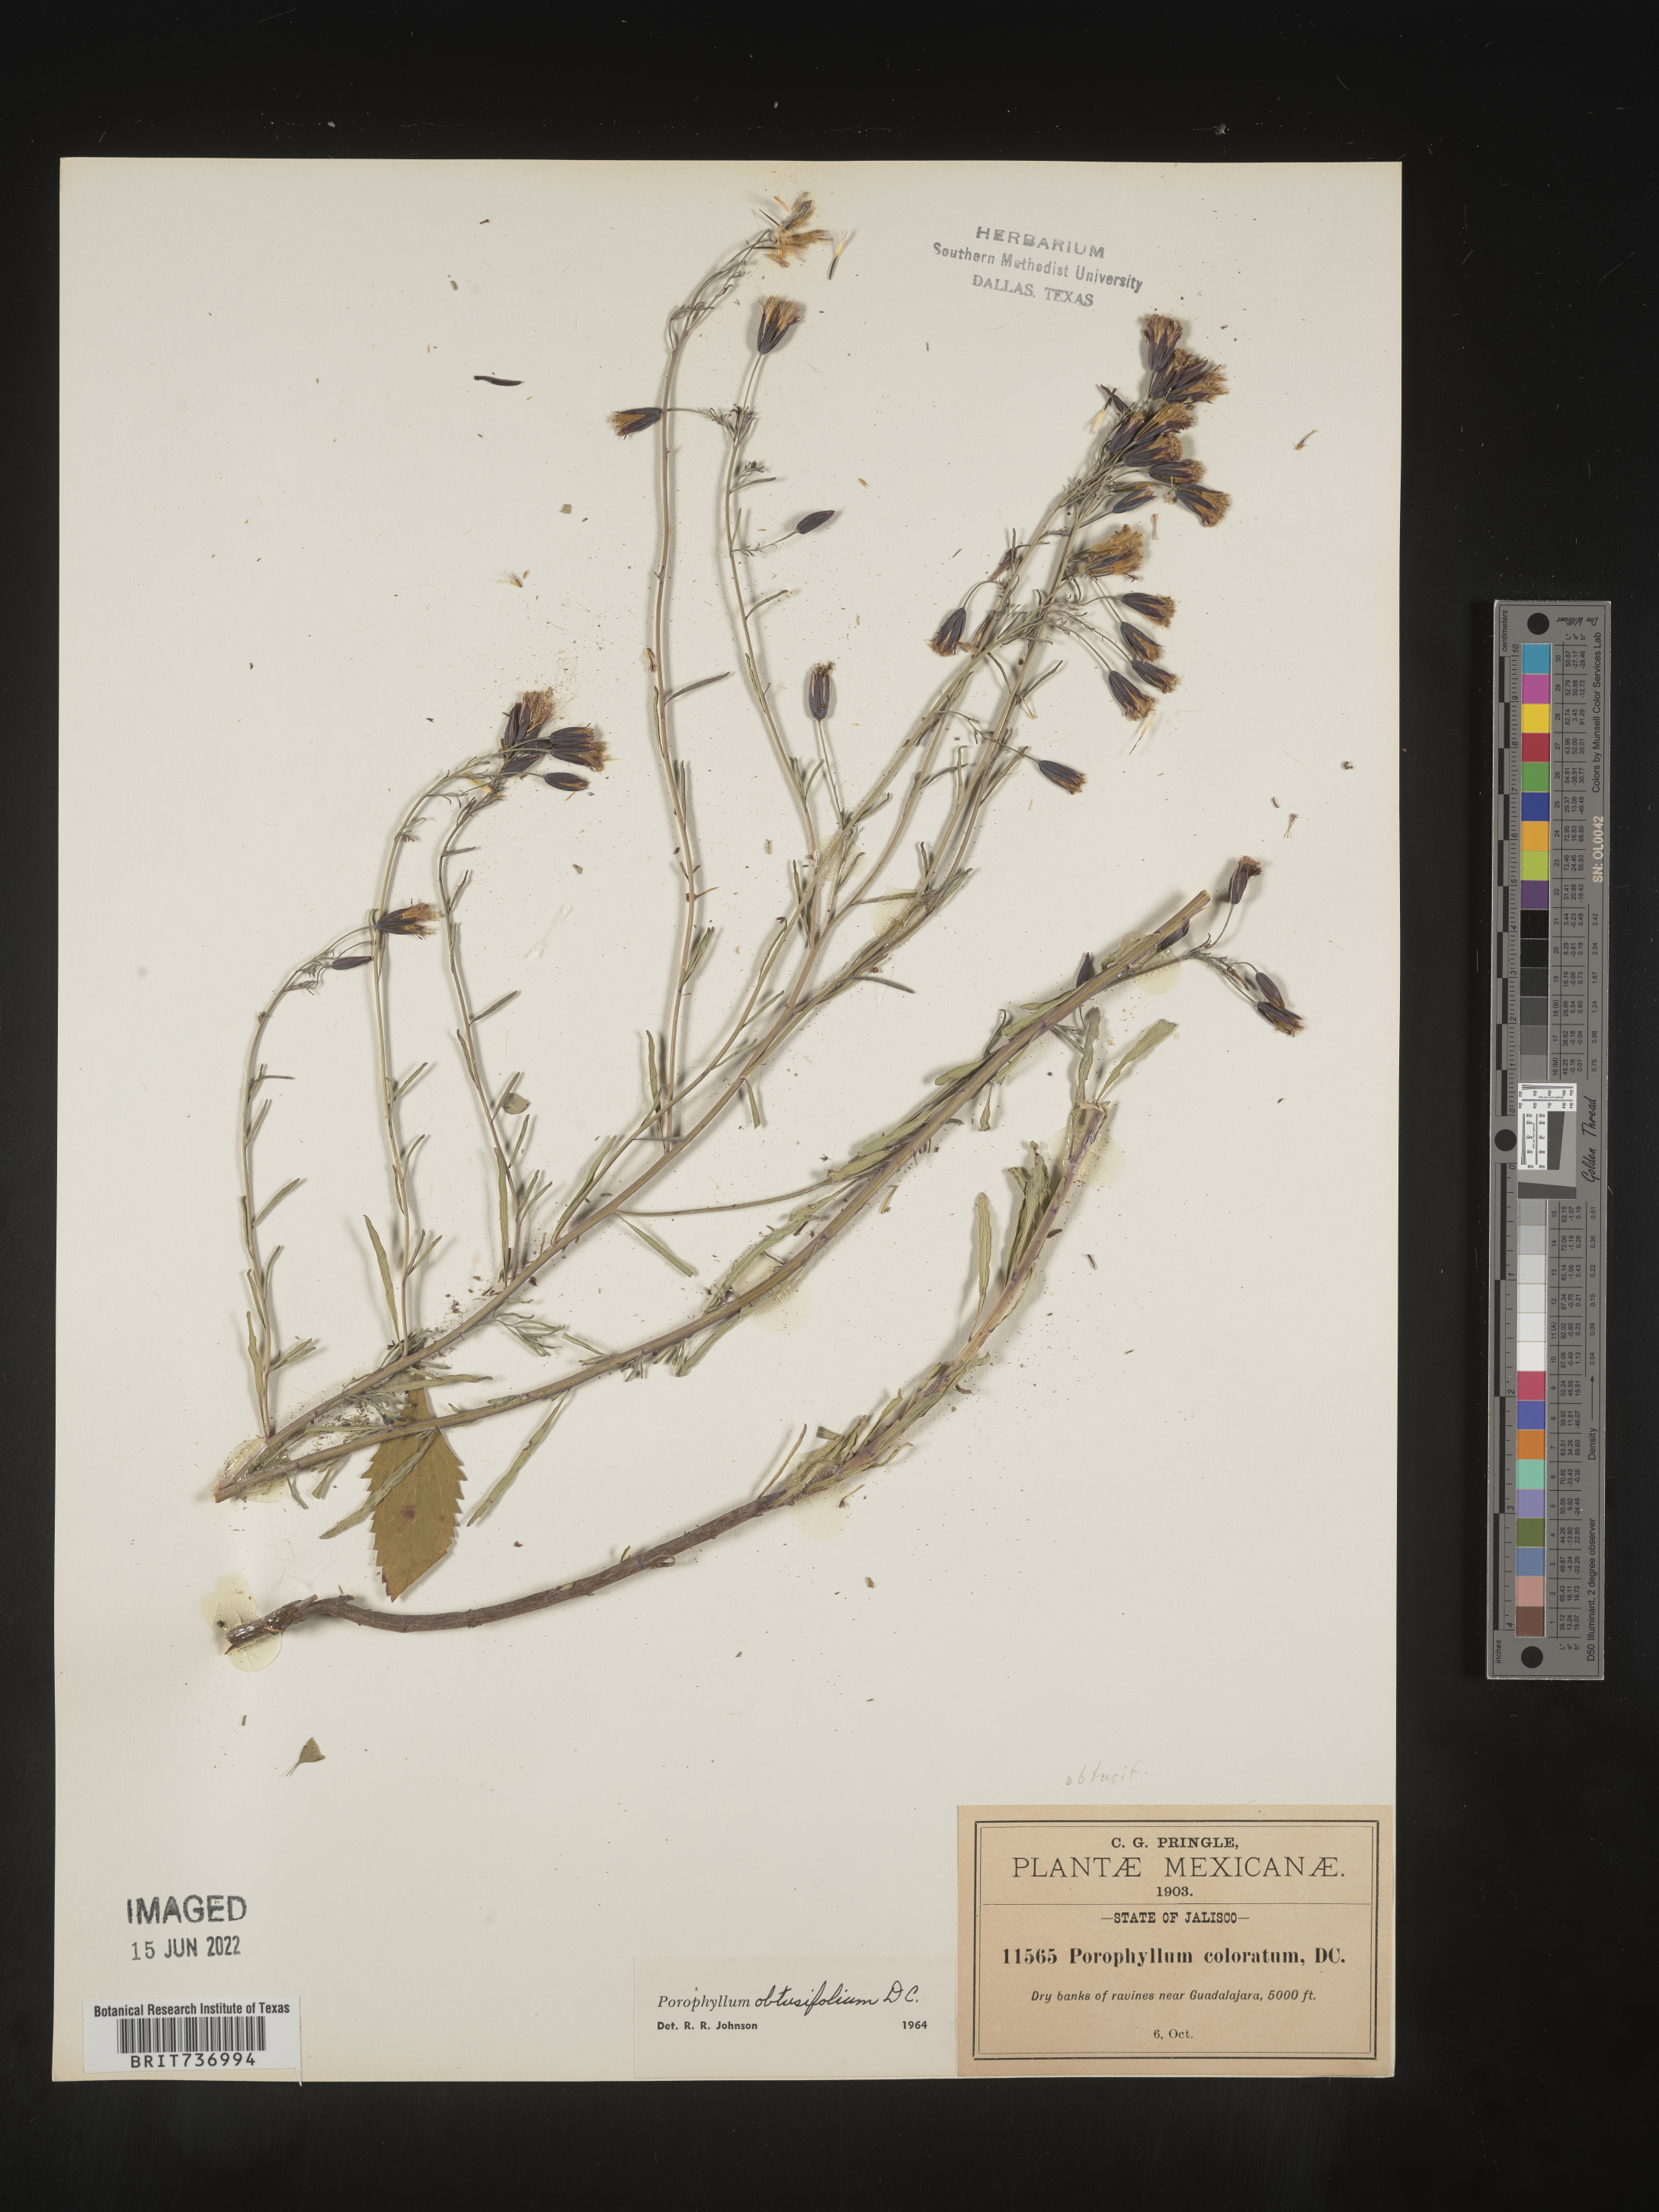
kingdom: Plantae
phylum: Tracheophyta
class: Magnoliopsida
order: Asterales
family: Asteraceae
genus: Porophyllum
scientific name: Porophyllum
